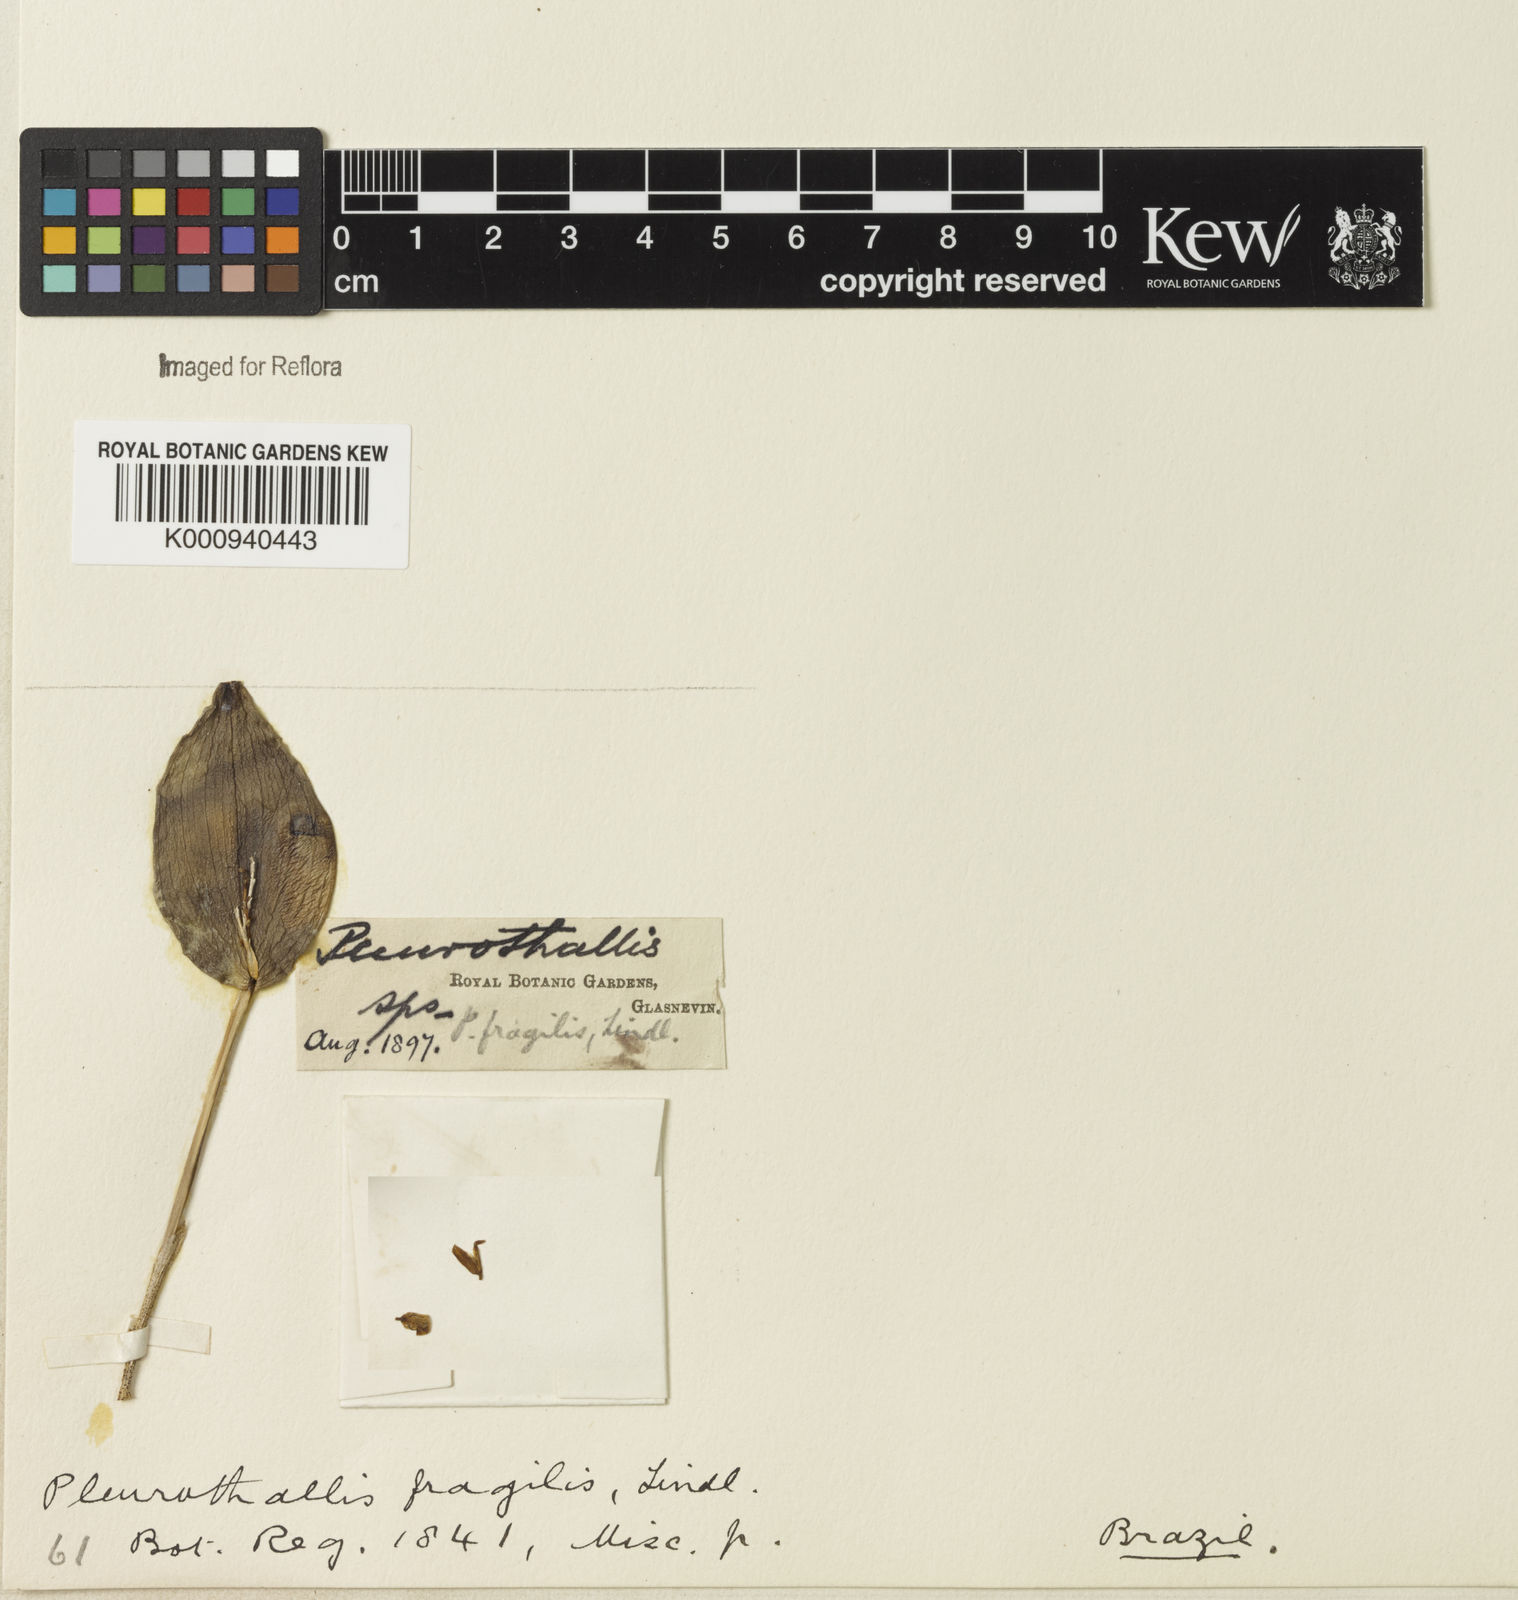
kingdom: Plantae
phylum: Tracheophyta
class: Liliopsida
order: Asparagales
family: Orchidaceae
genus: Acianthera
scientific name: Acianthera
